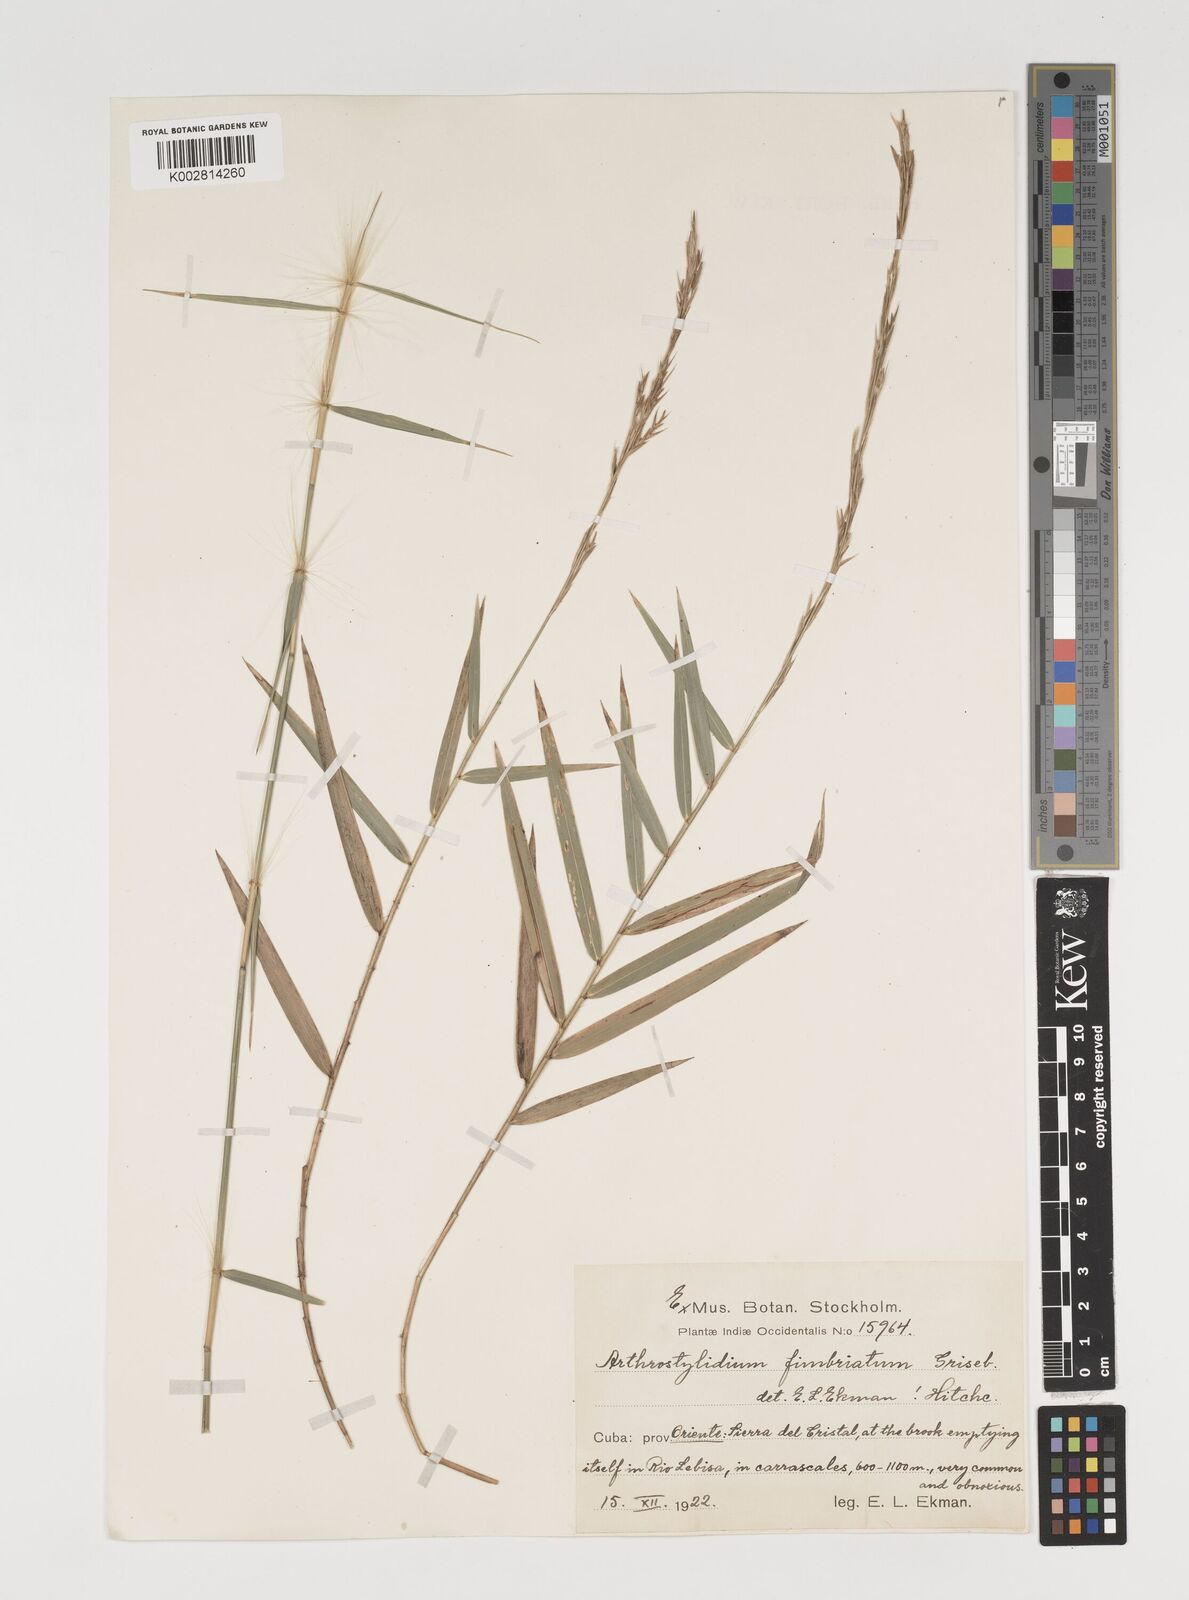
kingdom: Plantae
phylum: Tracheophyta
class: Liliopsida
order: Poales
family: Poaceae
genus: Arthrostylidium
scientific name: Arthrostylidium fimbriatum
